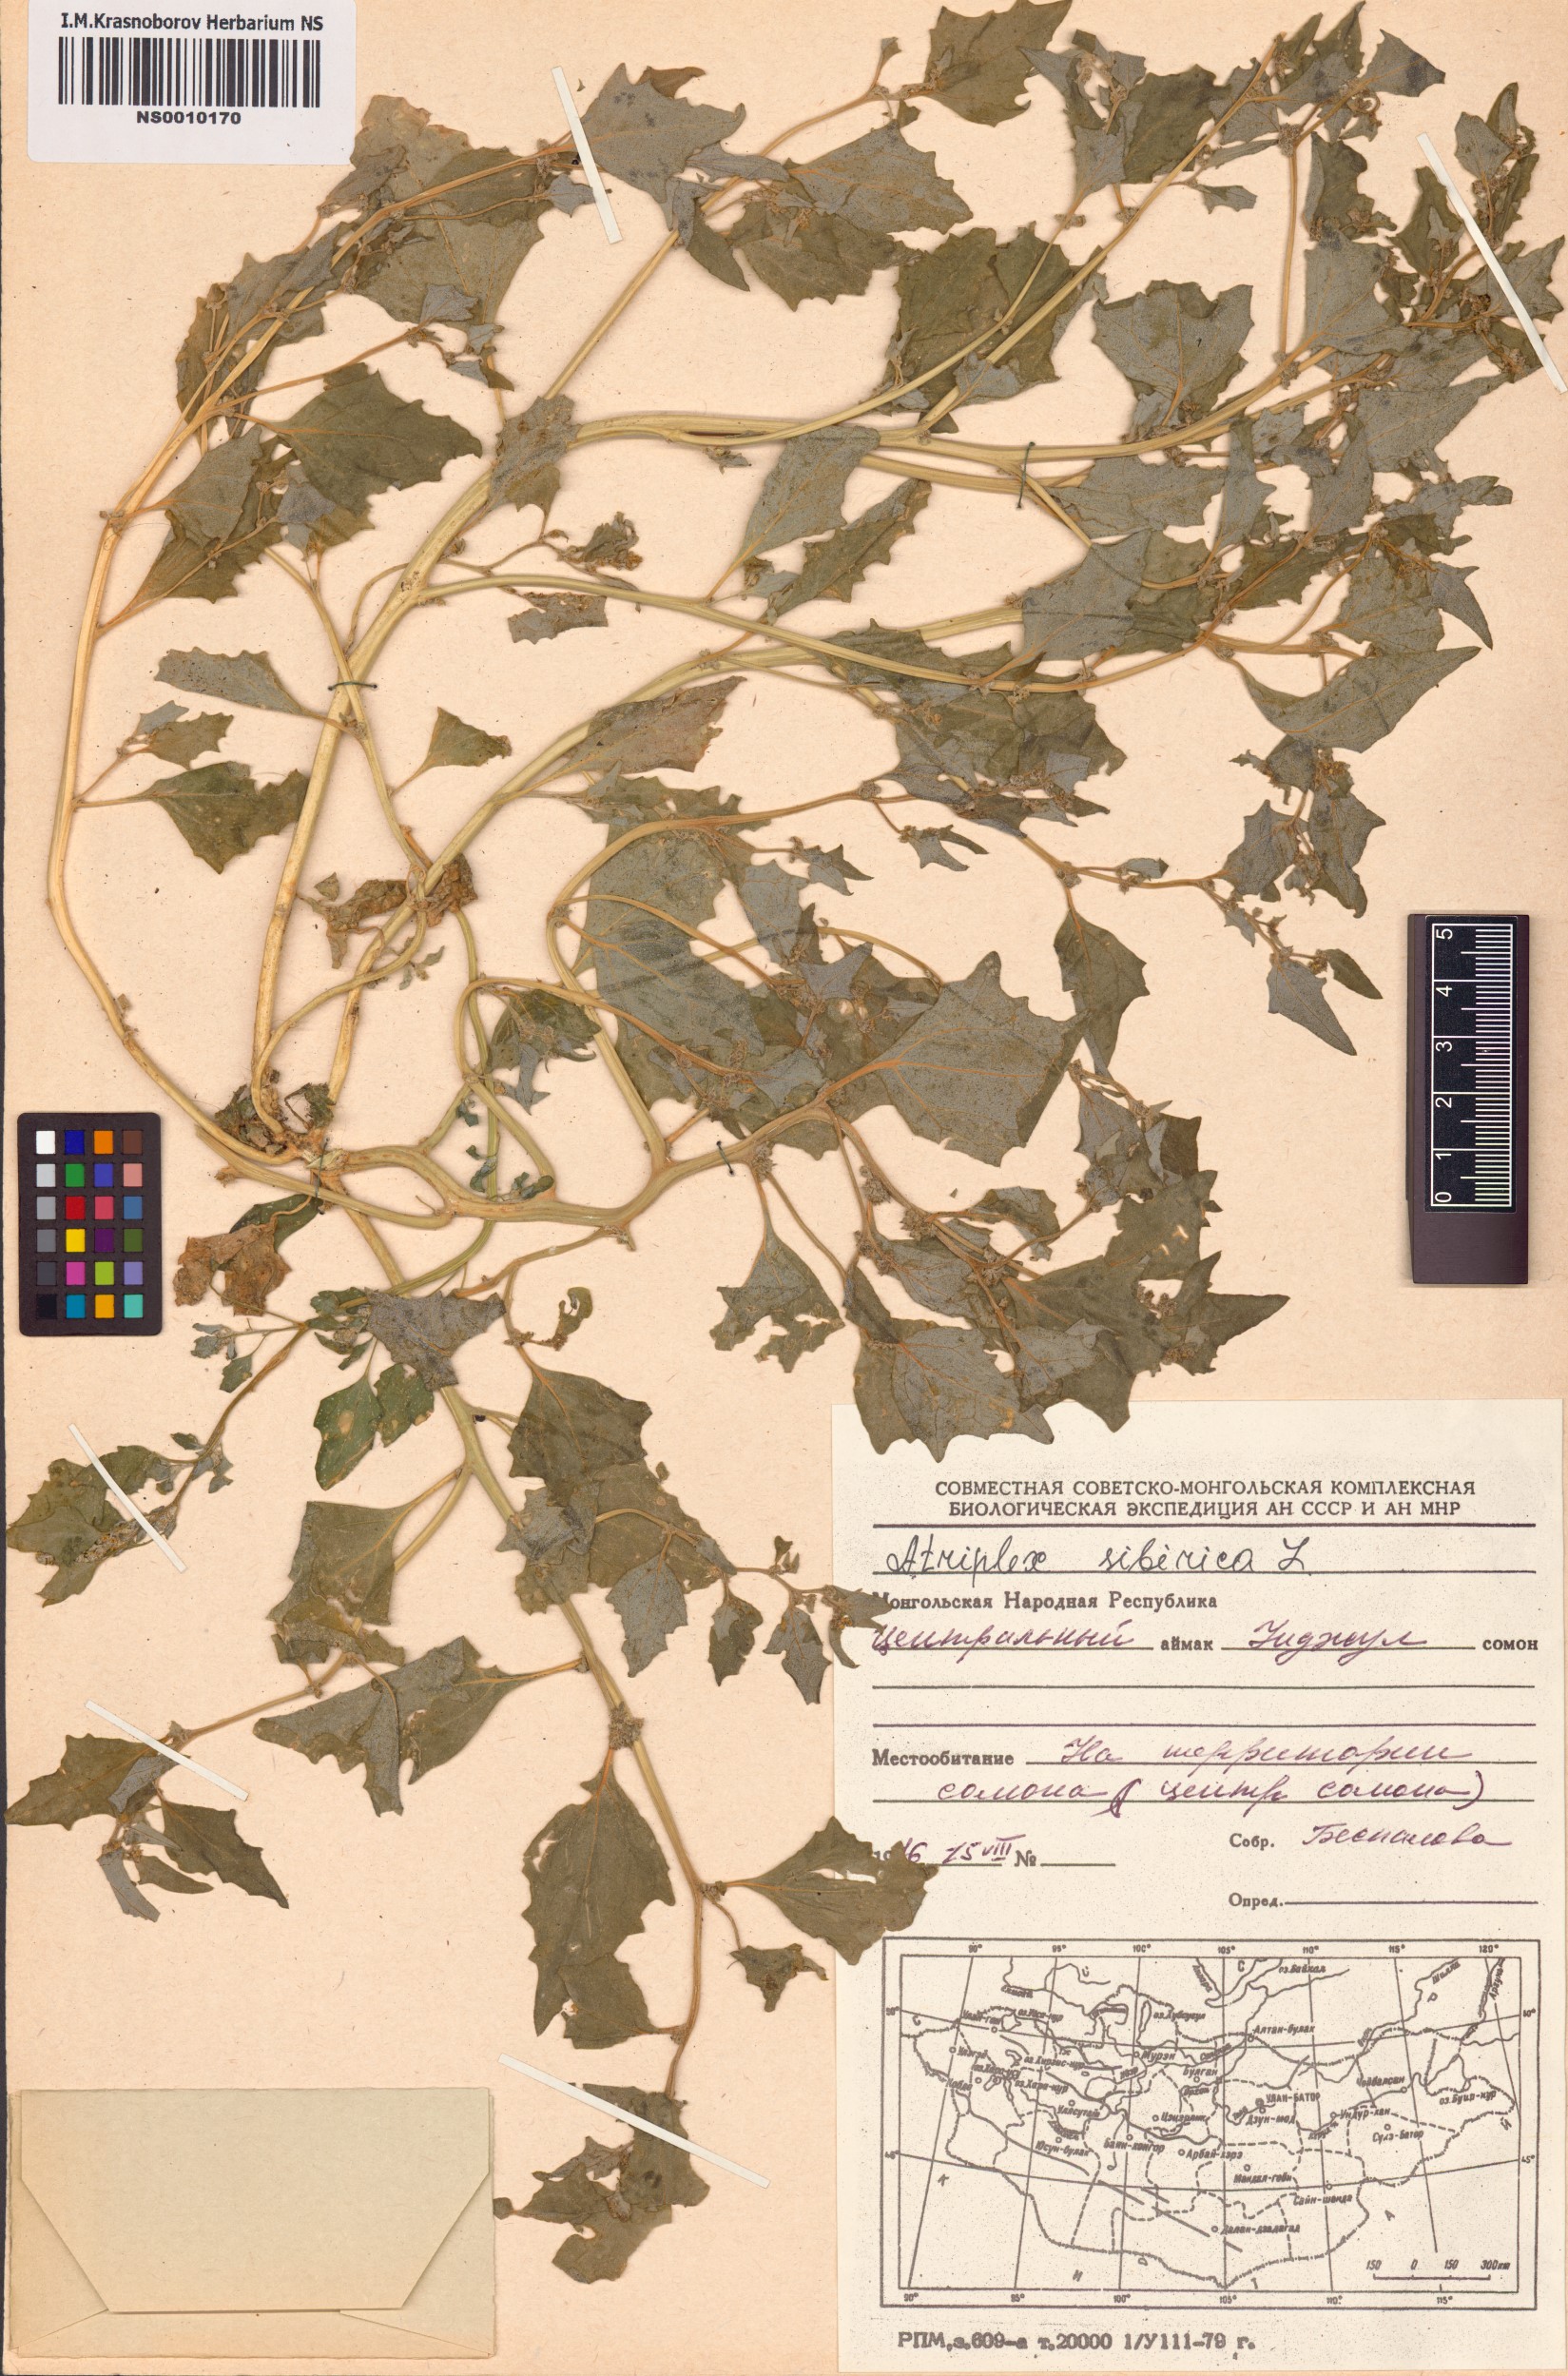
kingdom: Plantae
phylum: Tracheophyta
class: Magnoliopsida
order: Caryophyllales
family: Amaranthaceae
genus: Atriplex
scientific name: Atriplex sibirica
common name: Siberian saltbush
